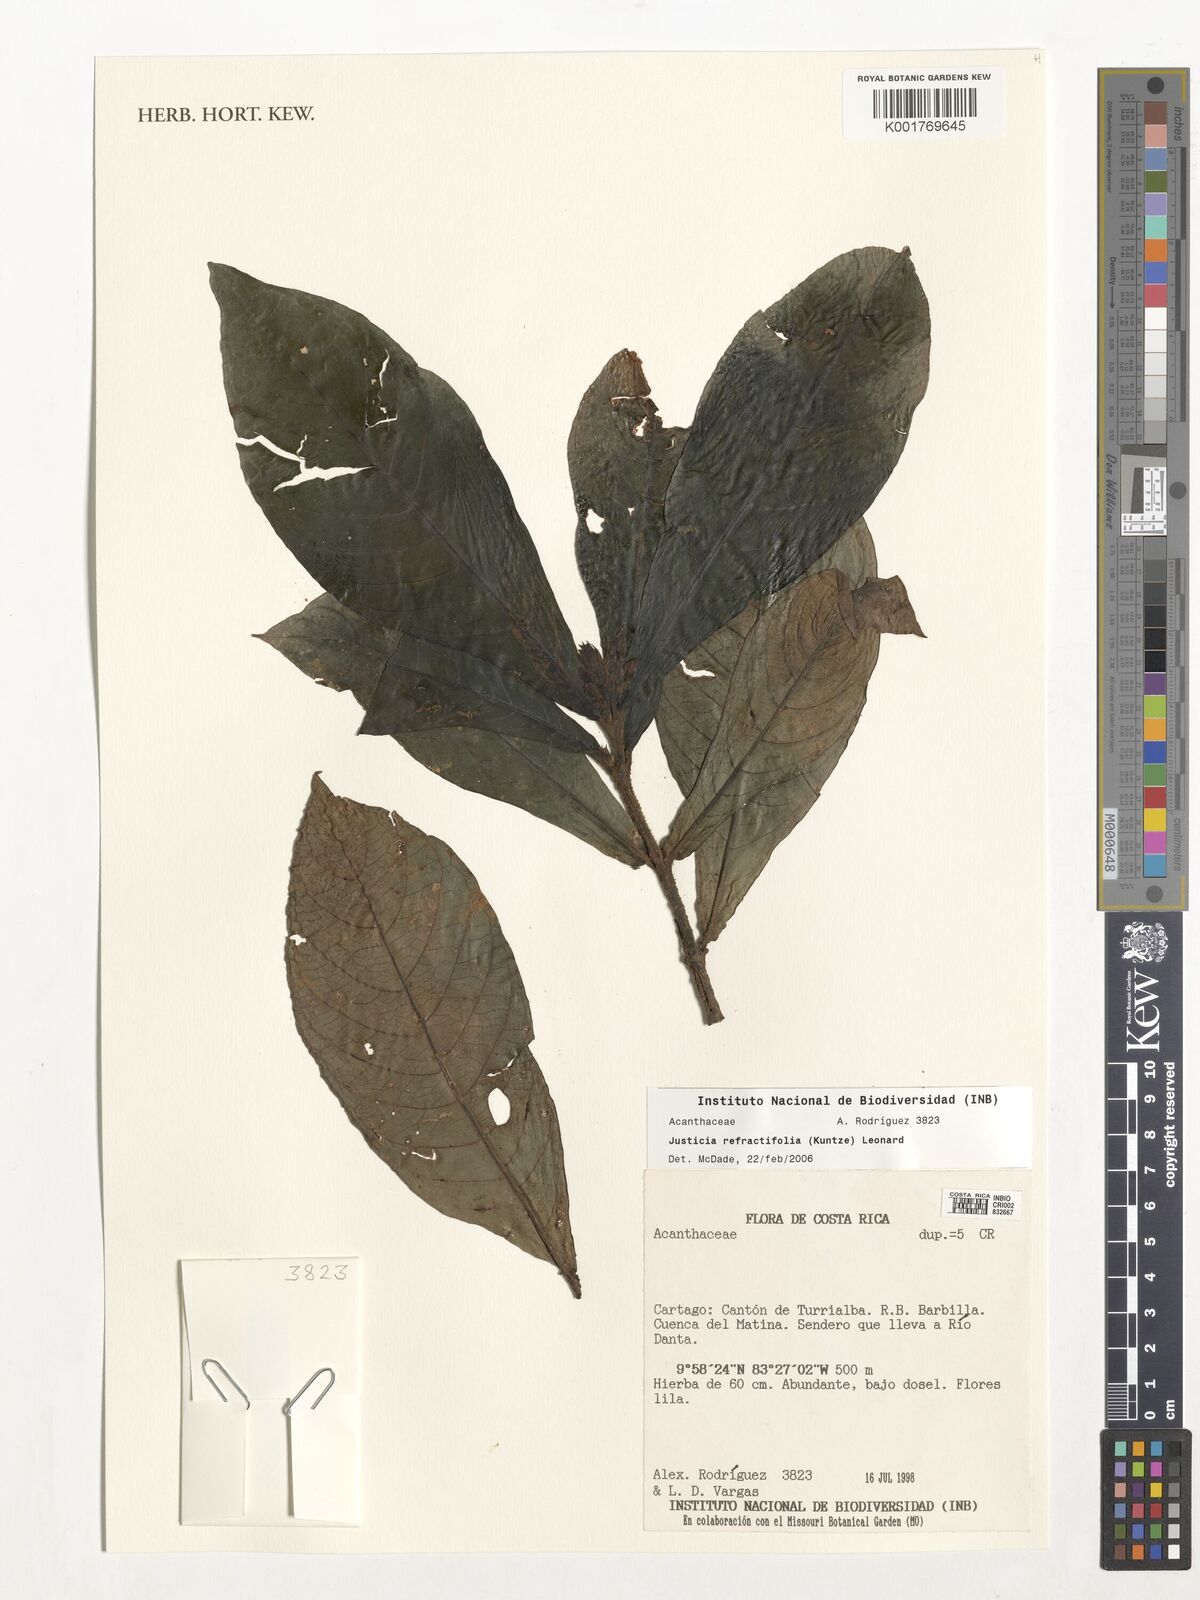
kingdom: Plantae
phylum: Tracheophyta
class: Magnoliopsida
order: Lamiales
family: Acanthaceae
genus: Justicia
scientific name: Justicia refractifolia
